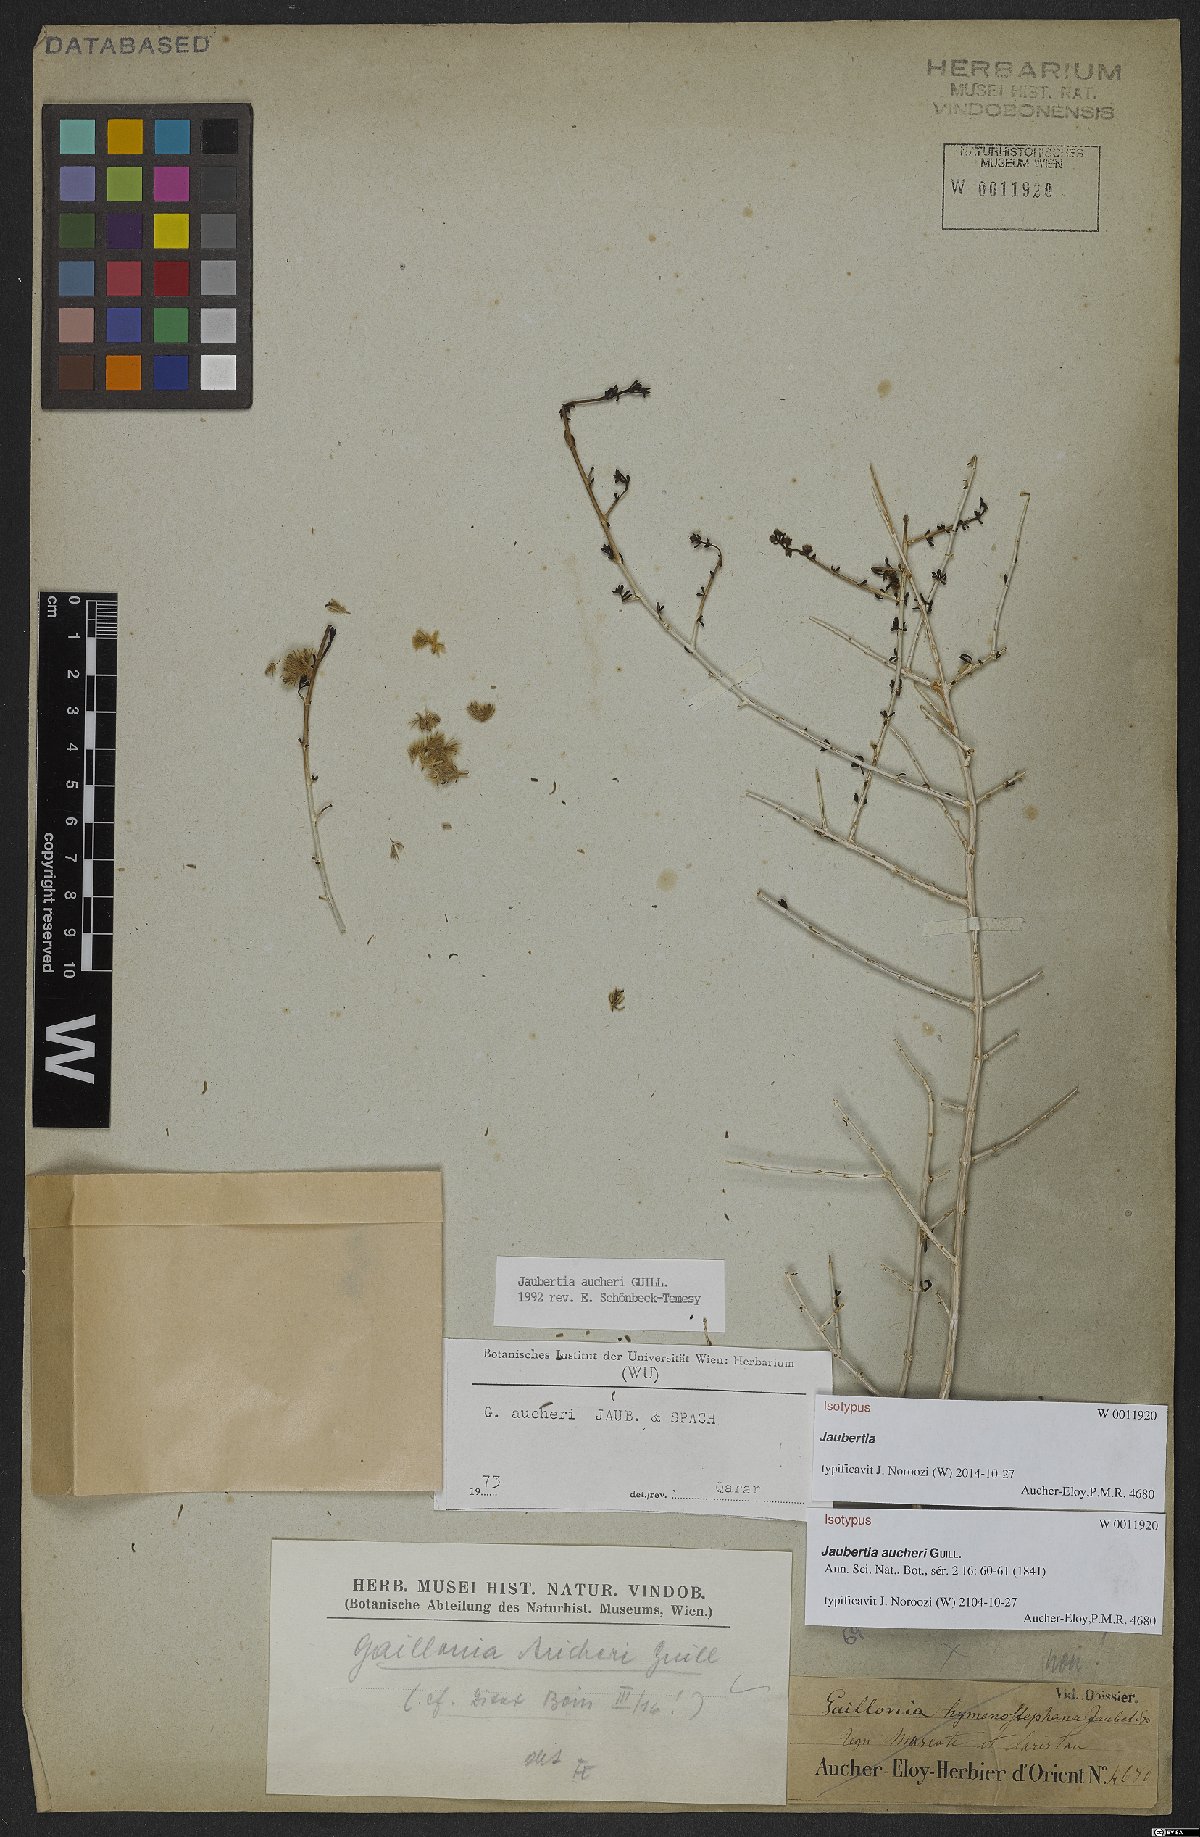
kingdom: Plantae
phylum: Tracheophyta
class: Magnoliopsida
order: Gentianales
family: Rubiaceae
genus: Plocama
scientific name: Plocama aucheri
